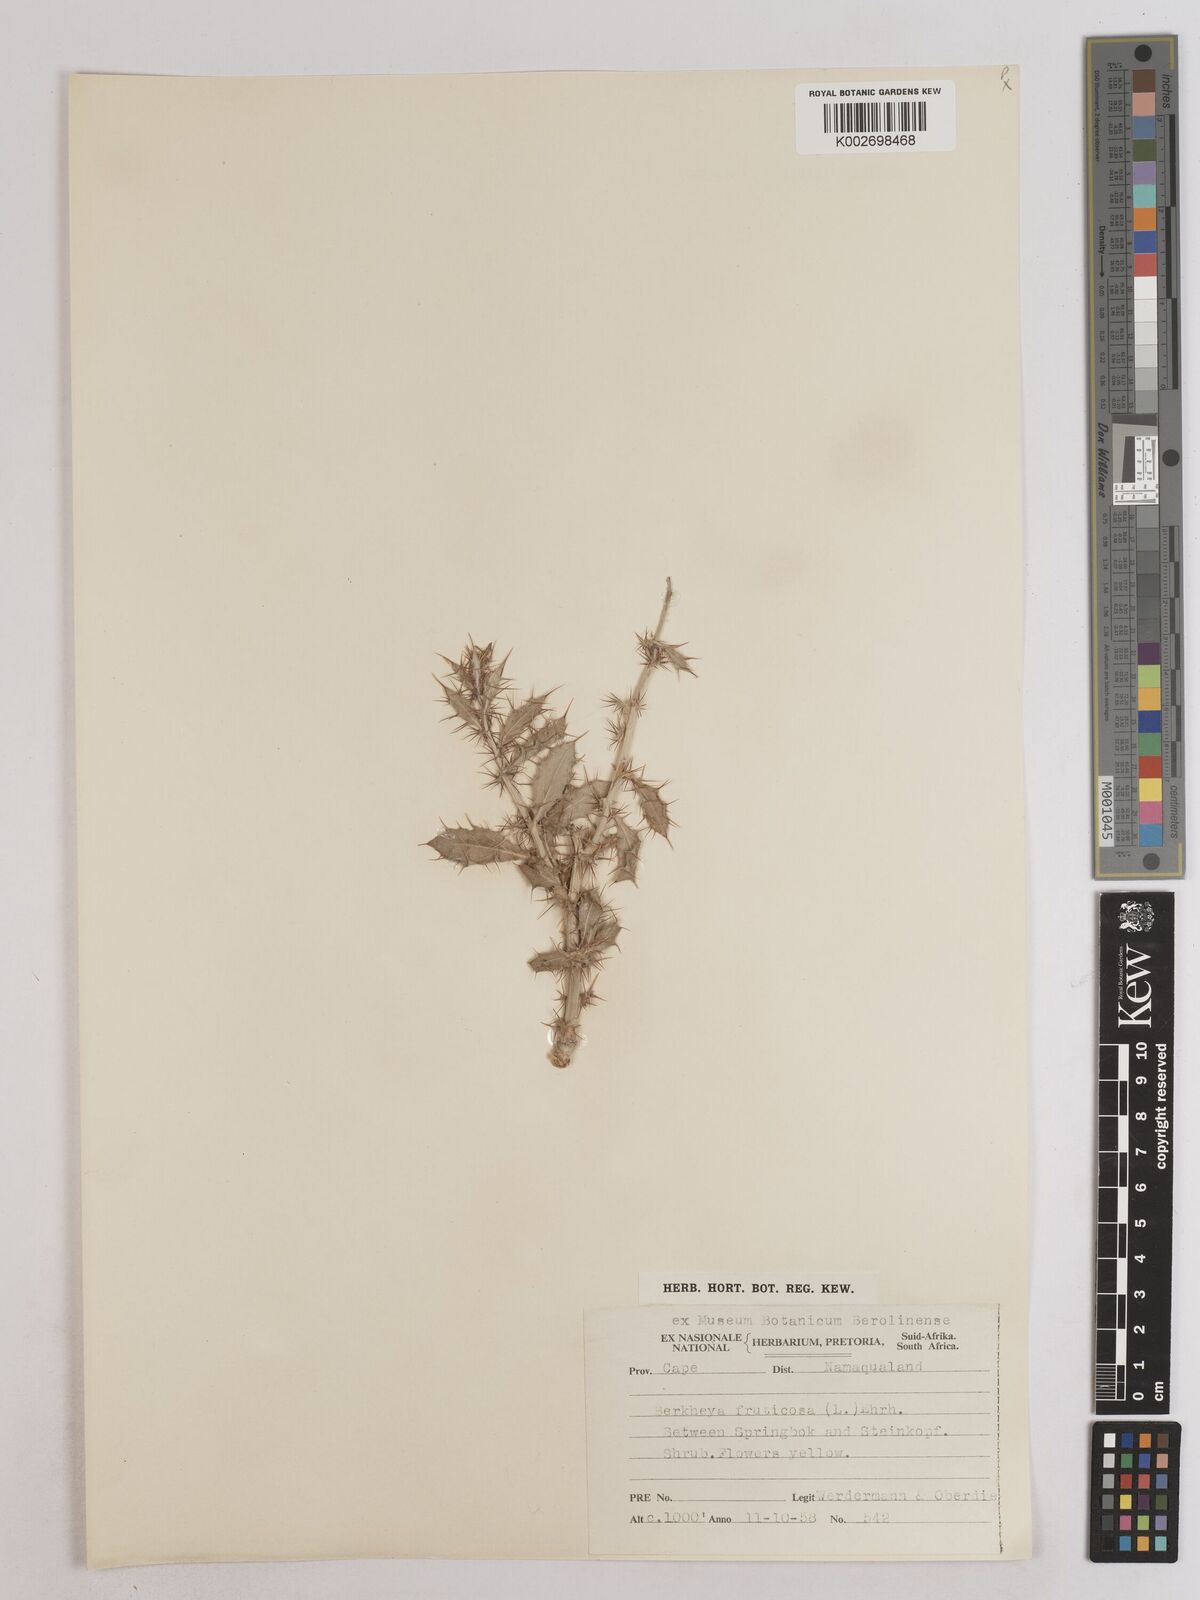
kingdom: Plantae
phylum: Tracheophyta
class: Magnoliopsida
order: Asterales
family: Asteraceae
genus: Berkheya
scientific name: Berkheya fruticosa
